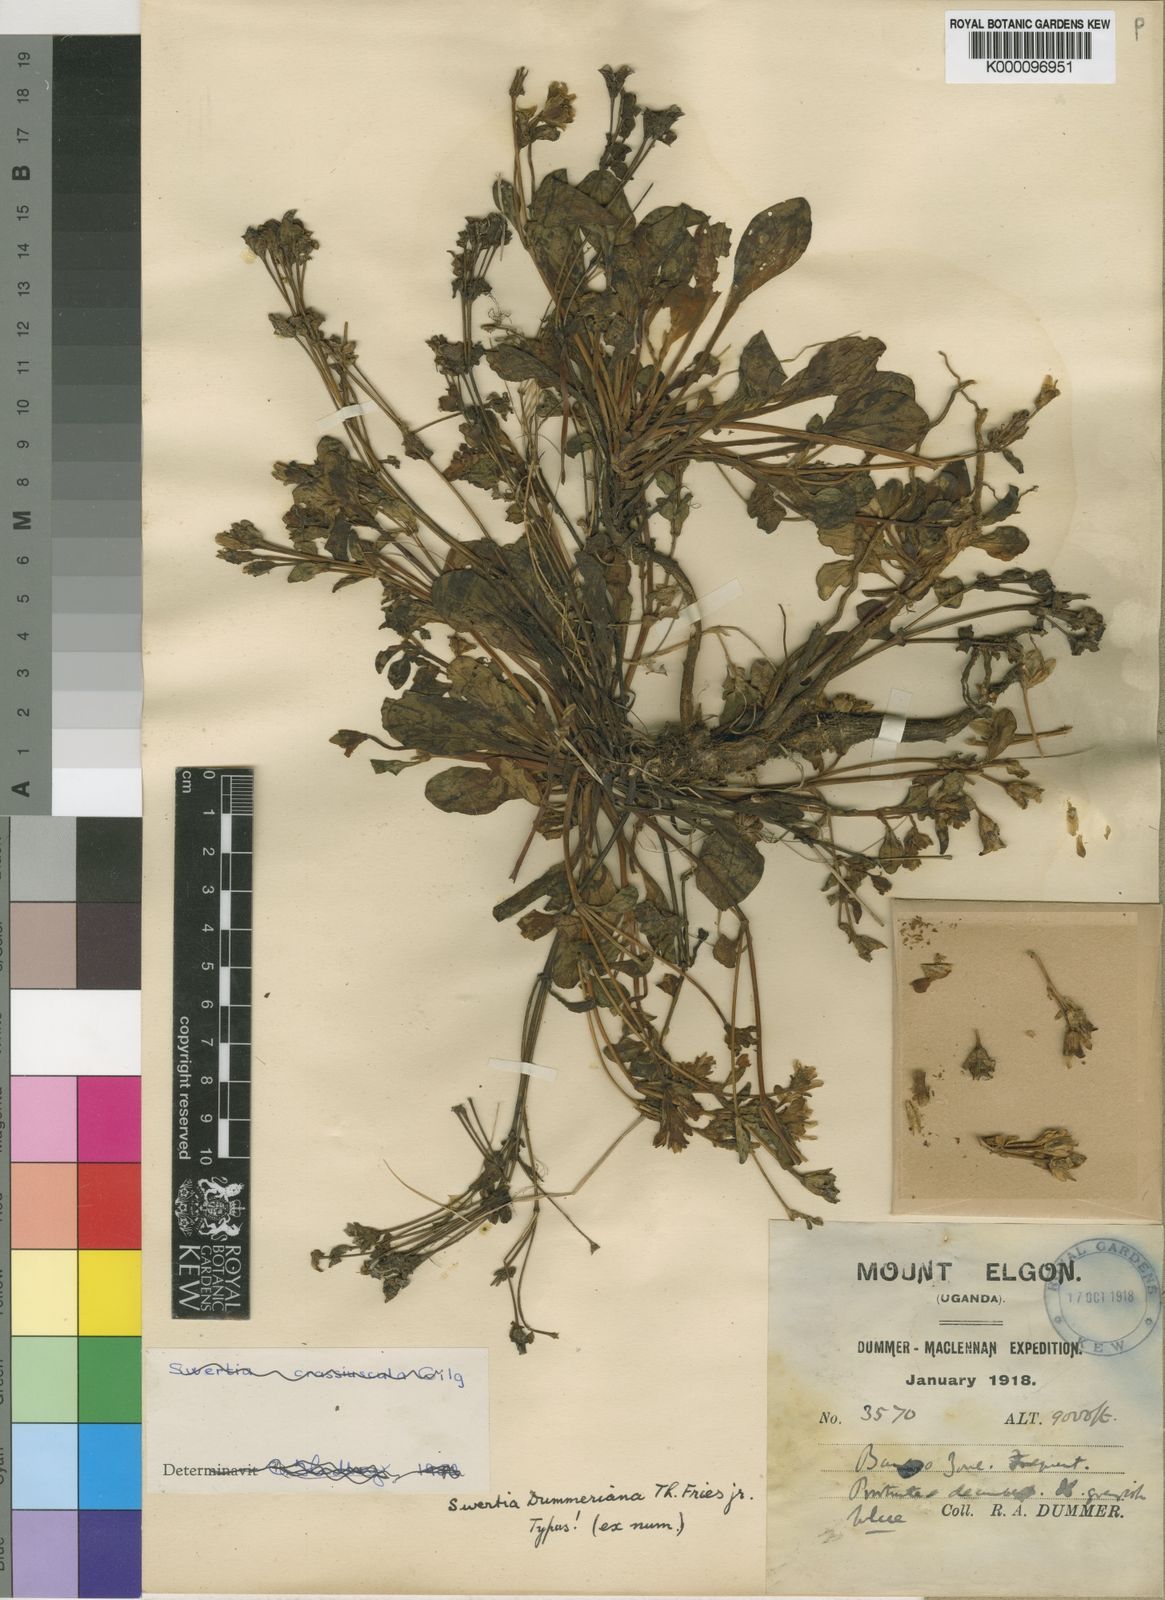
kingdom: Plantae
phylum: Tracheophyta
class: Magnoliopsida
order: Gentianales
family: Gentianaceae
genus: Swertia
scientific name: Swertia crassiuscula
